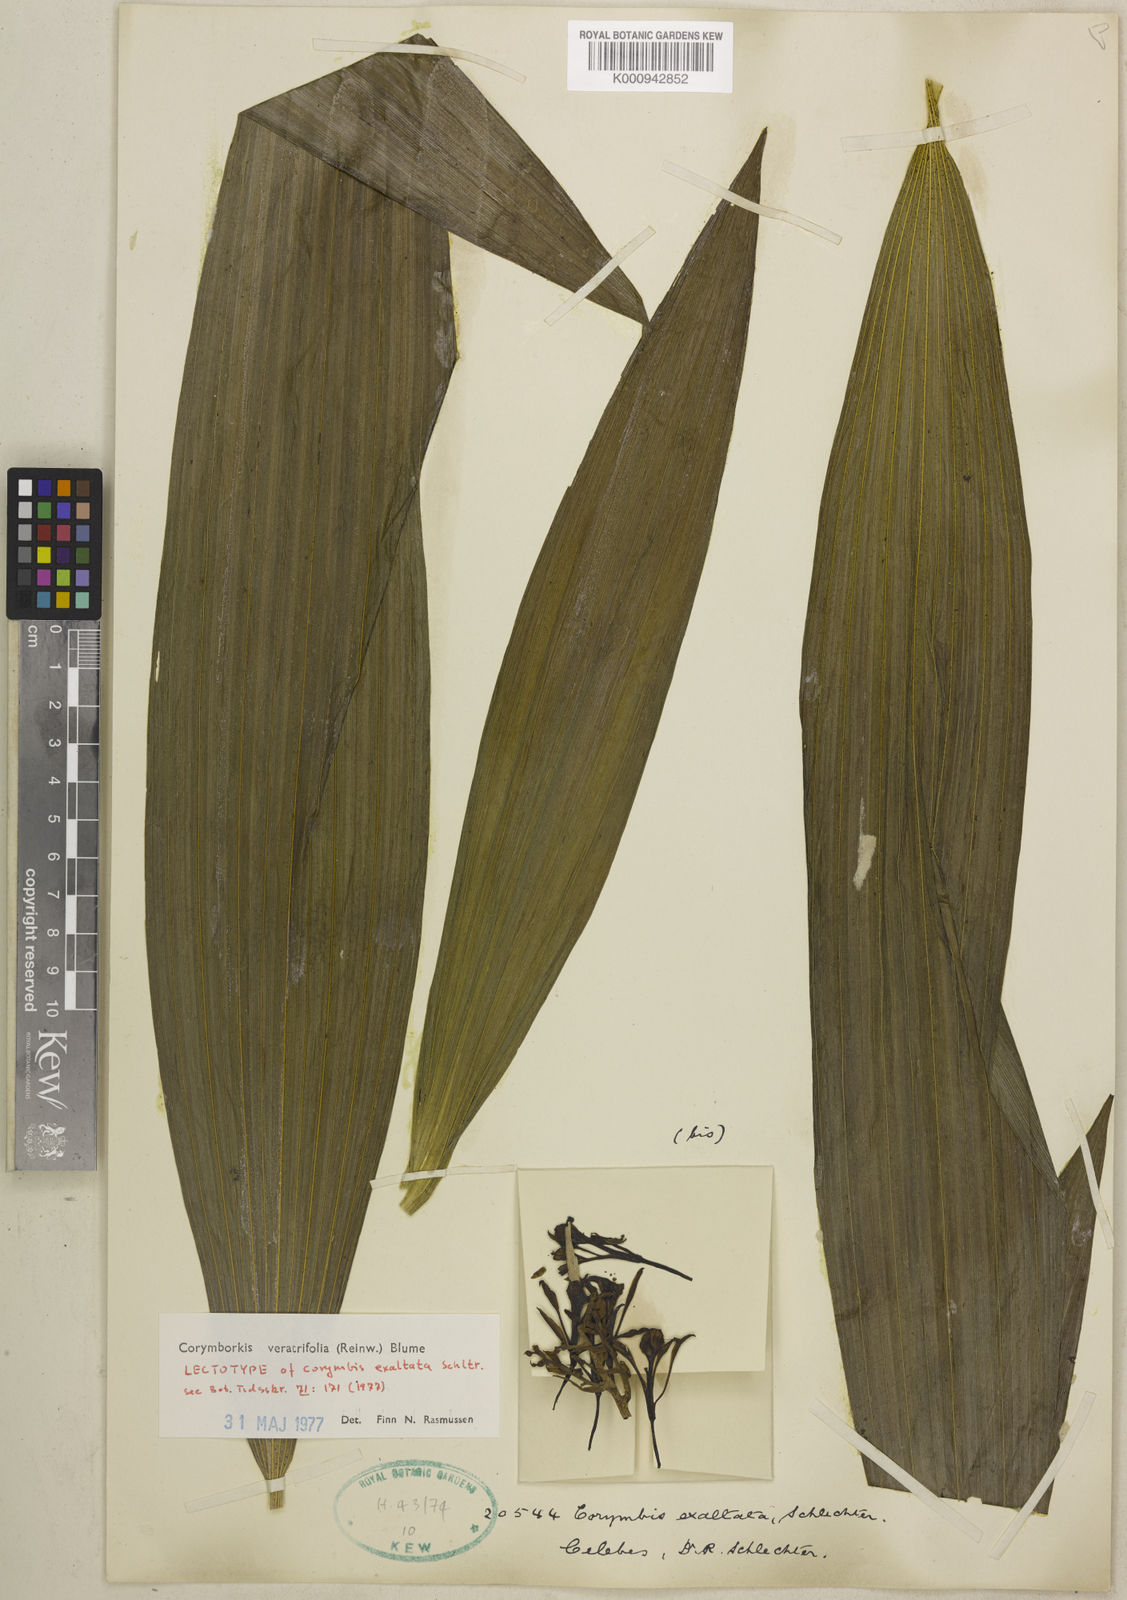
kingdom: Plantae
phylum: Tracheophyta
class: Liliopsida
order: Asparagales
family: Orchidaceae
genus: Corymborkis
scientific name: Corymborkis veratrifolia
